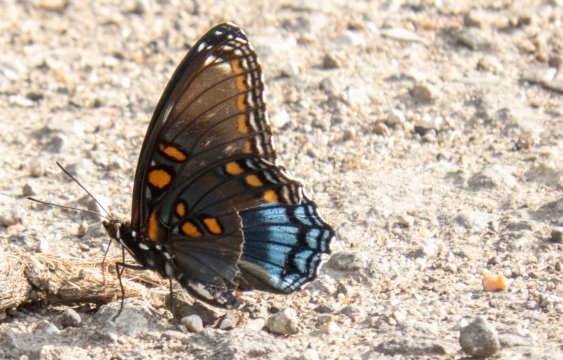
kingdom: Animalia
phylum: Arthropoda
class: Insecta
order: Lepidoptera
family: Nymphalidae
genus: Limenitis
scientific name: Limenitis arthemis
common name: Red-spotted Admiral
